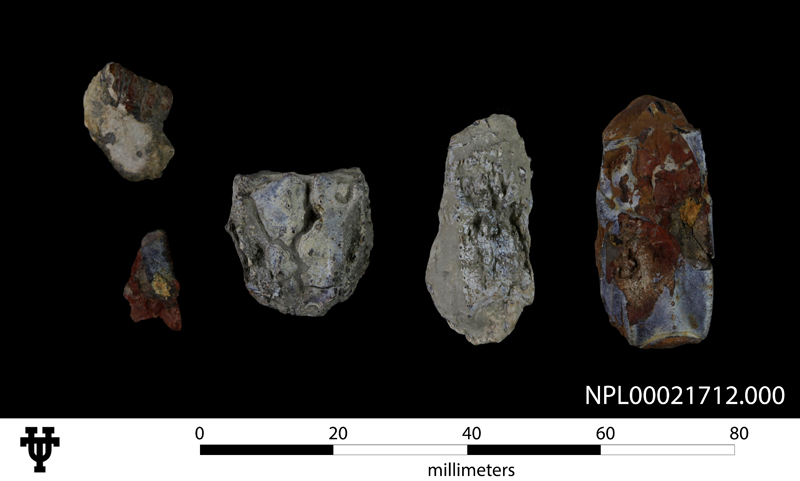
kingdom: Animalia
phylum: Arthropoda
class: Malacostraca
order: Decapoda
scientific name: Decapoda
